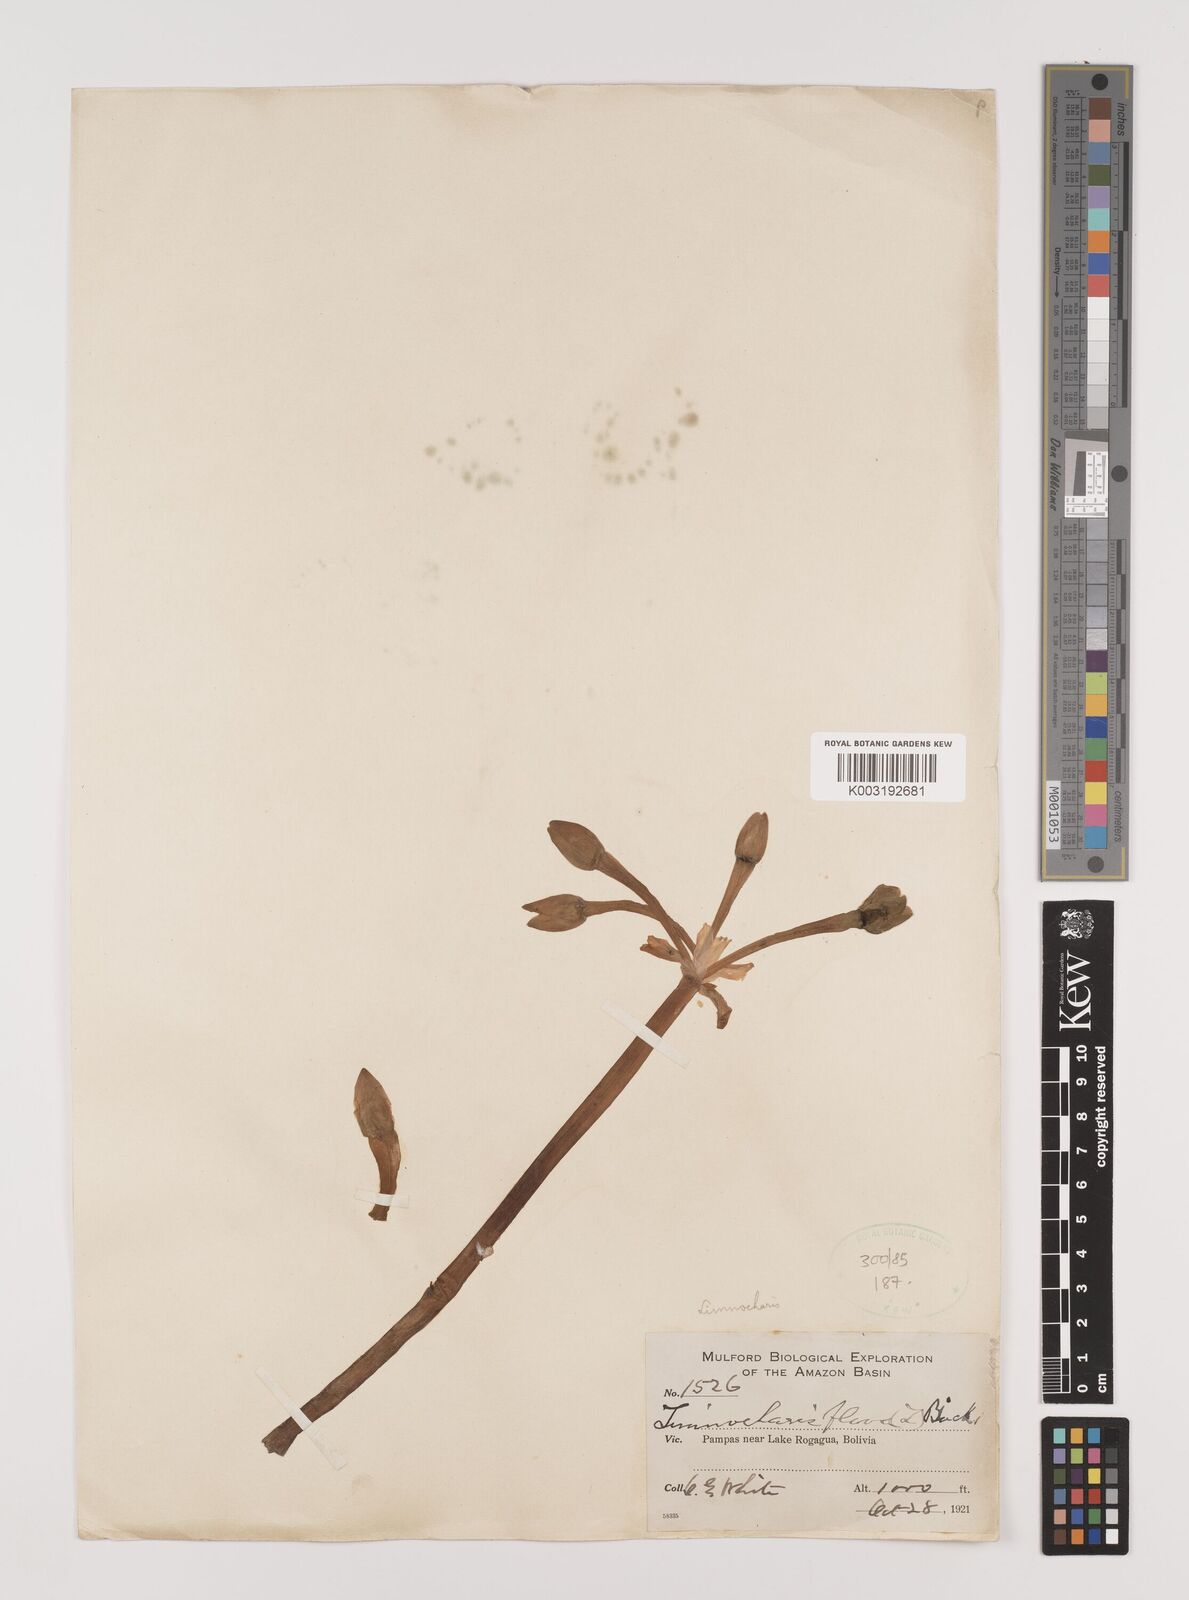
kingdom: Plantae
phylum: Tracheophyta
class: Liliopsida
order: Alismatales
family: Alismataceae
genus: Limnocharis
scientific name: Limnocharis flava
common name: Sawah-flower-rush
